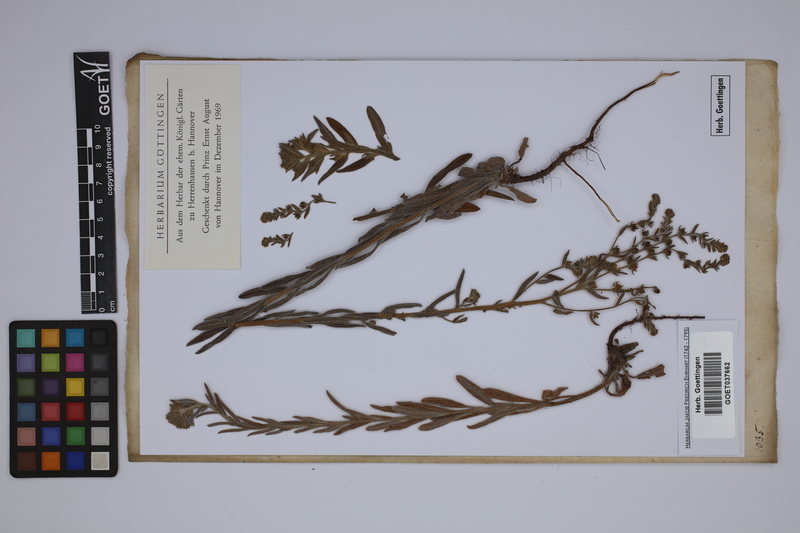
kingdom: Plantae
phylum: Tracheophyta
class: Magnoliopsida
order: Boraginales
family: Boraginaceae
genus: Lappula
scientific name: Lappula squarrosa
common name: European stickseed
